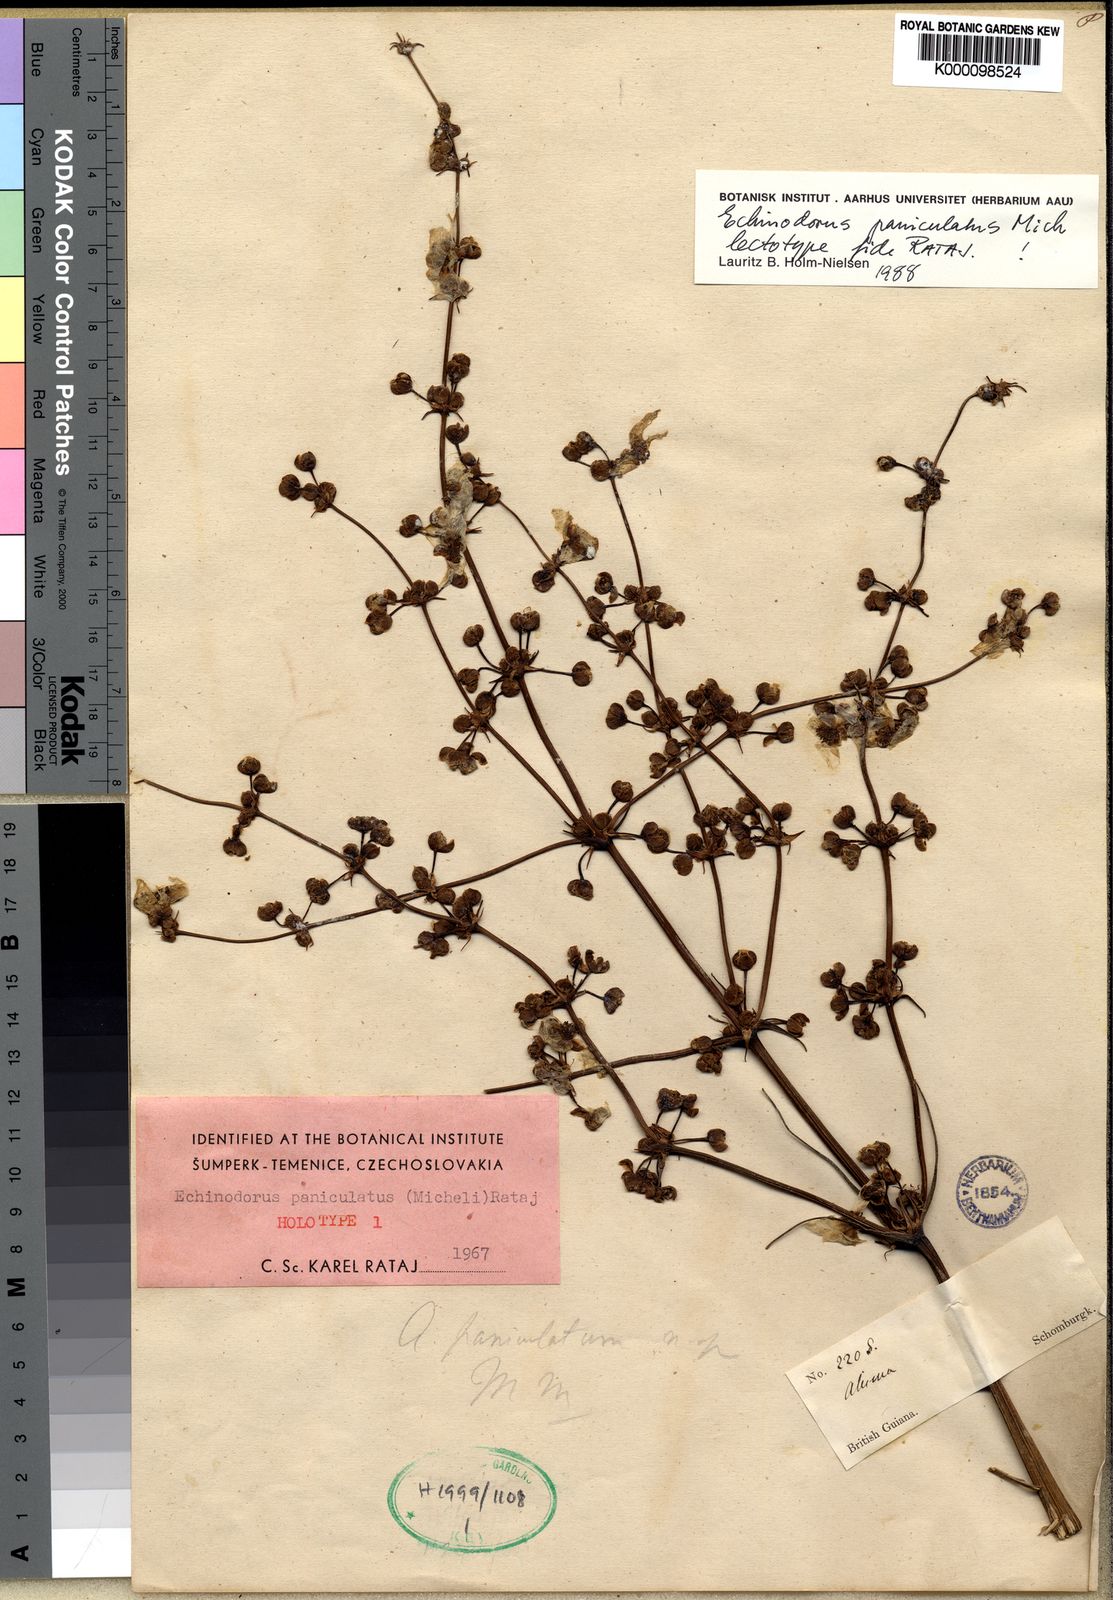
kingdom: Plantae
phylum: Tracheophyta
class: Liliopsida
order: Alismatales
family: Alismataceae
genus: Echinodorus
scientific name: Echinodorus
